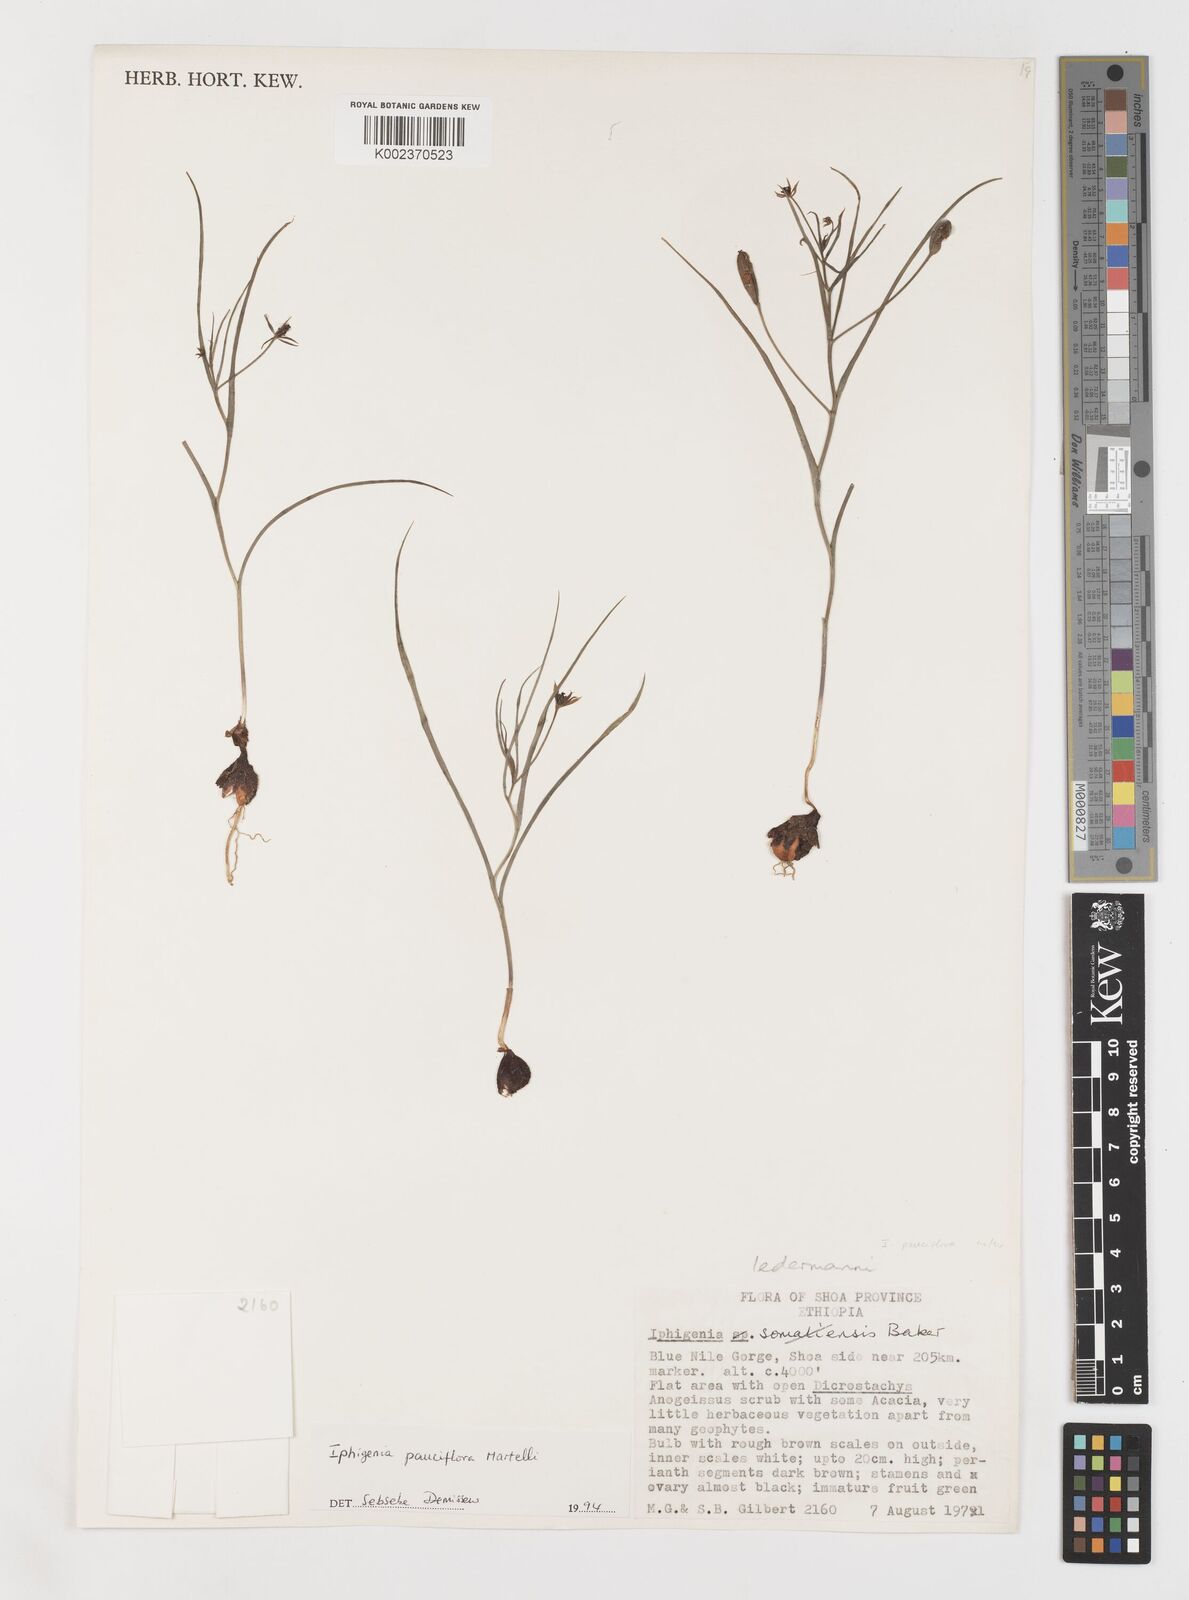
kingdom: Plantae
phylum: Tracheophyta
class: Liliopsida
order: Liliales
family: Colchicaceae
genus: Iphigenia
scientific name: Iphigenia pauciflora
